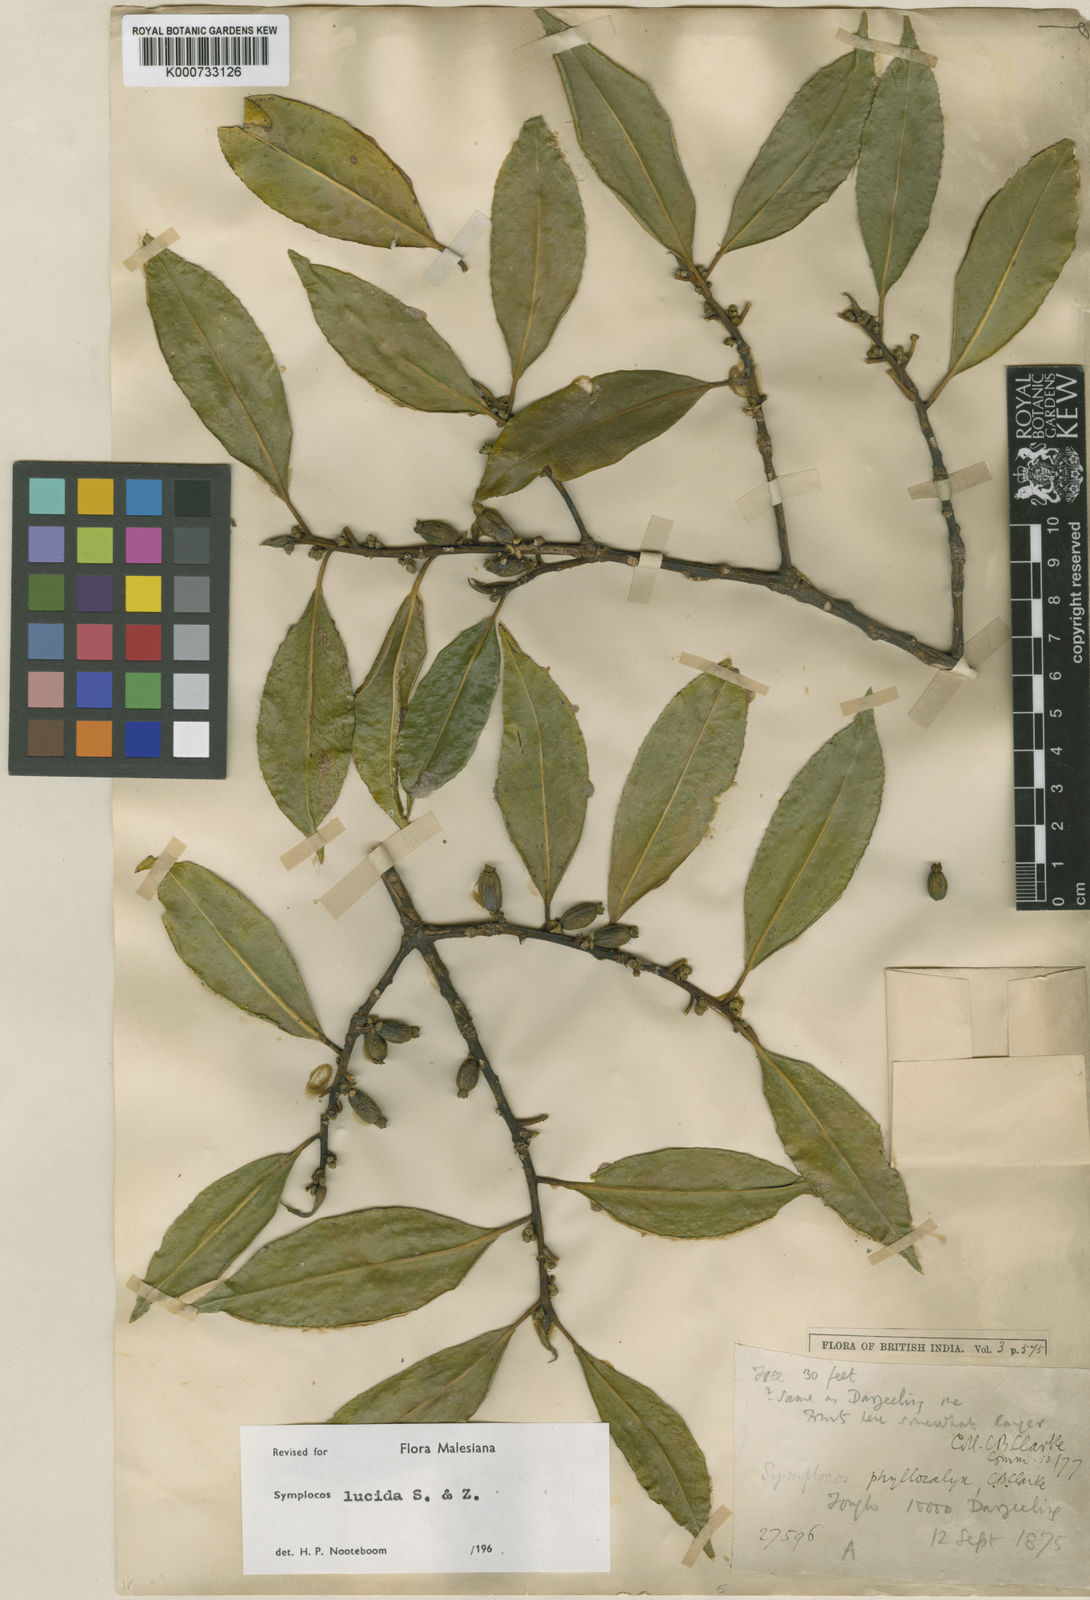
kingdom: Plantae
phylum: Tracheophyta
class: Magnoliopsida
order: Ericales
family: Symplocaceae
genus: Symplocos
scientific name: Symplocos
